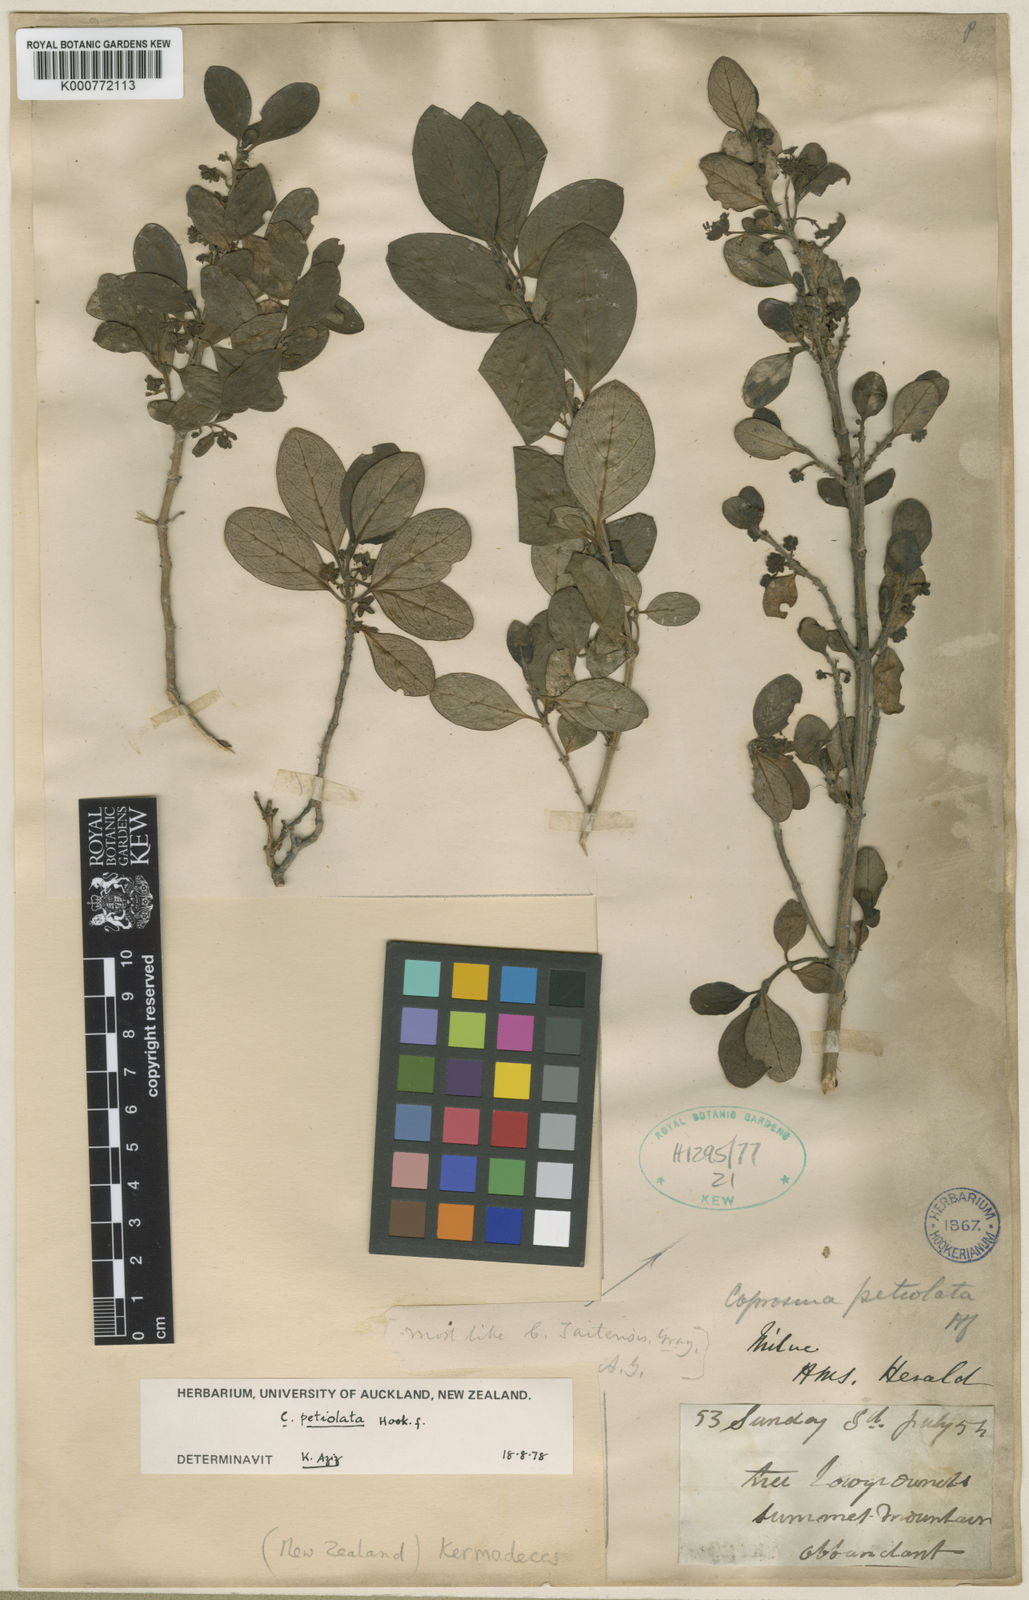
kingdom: Plantae
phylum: Tracheophyta
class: Magnoliopsida
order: Gentianales
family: Rubiaceae
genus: Coprosma
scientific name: Coprosma petiolata
